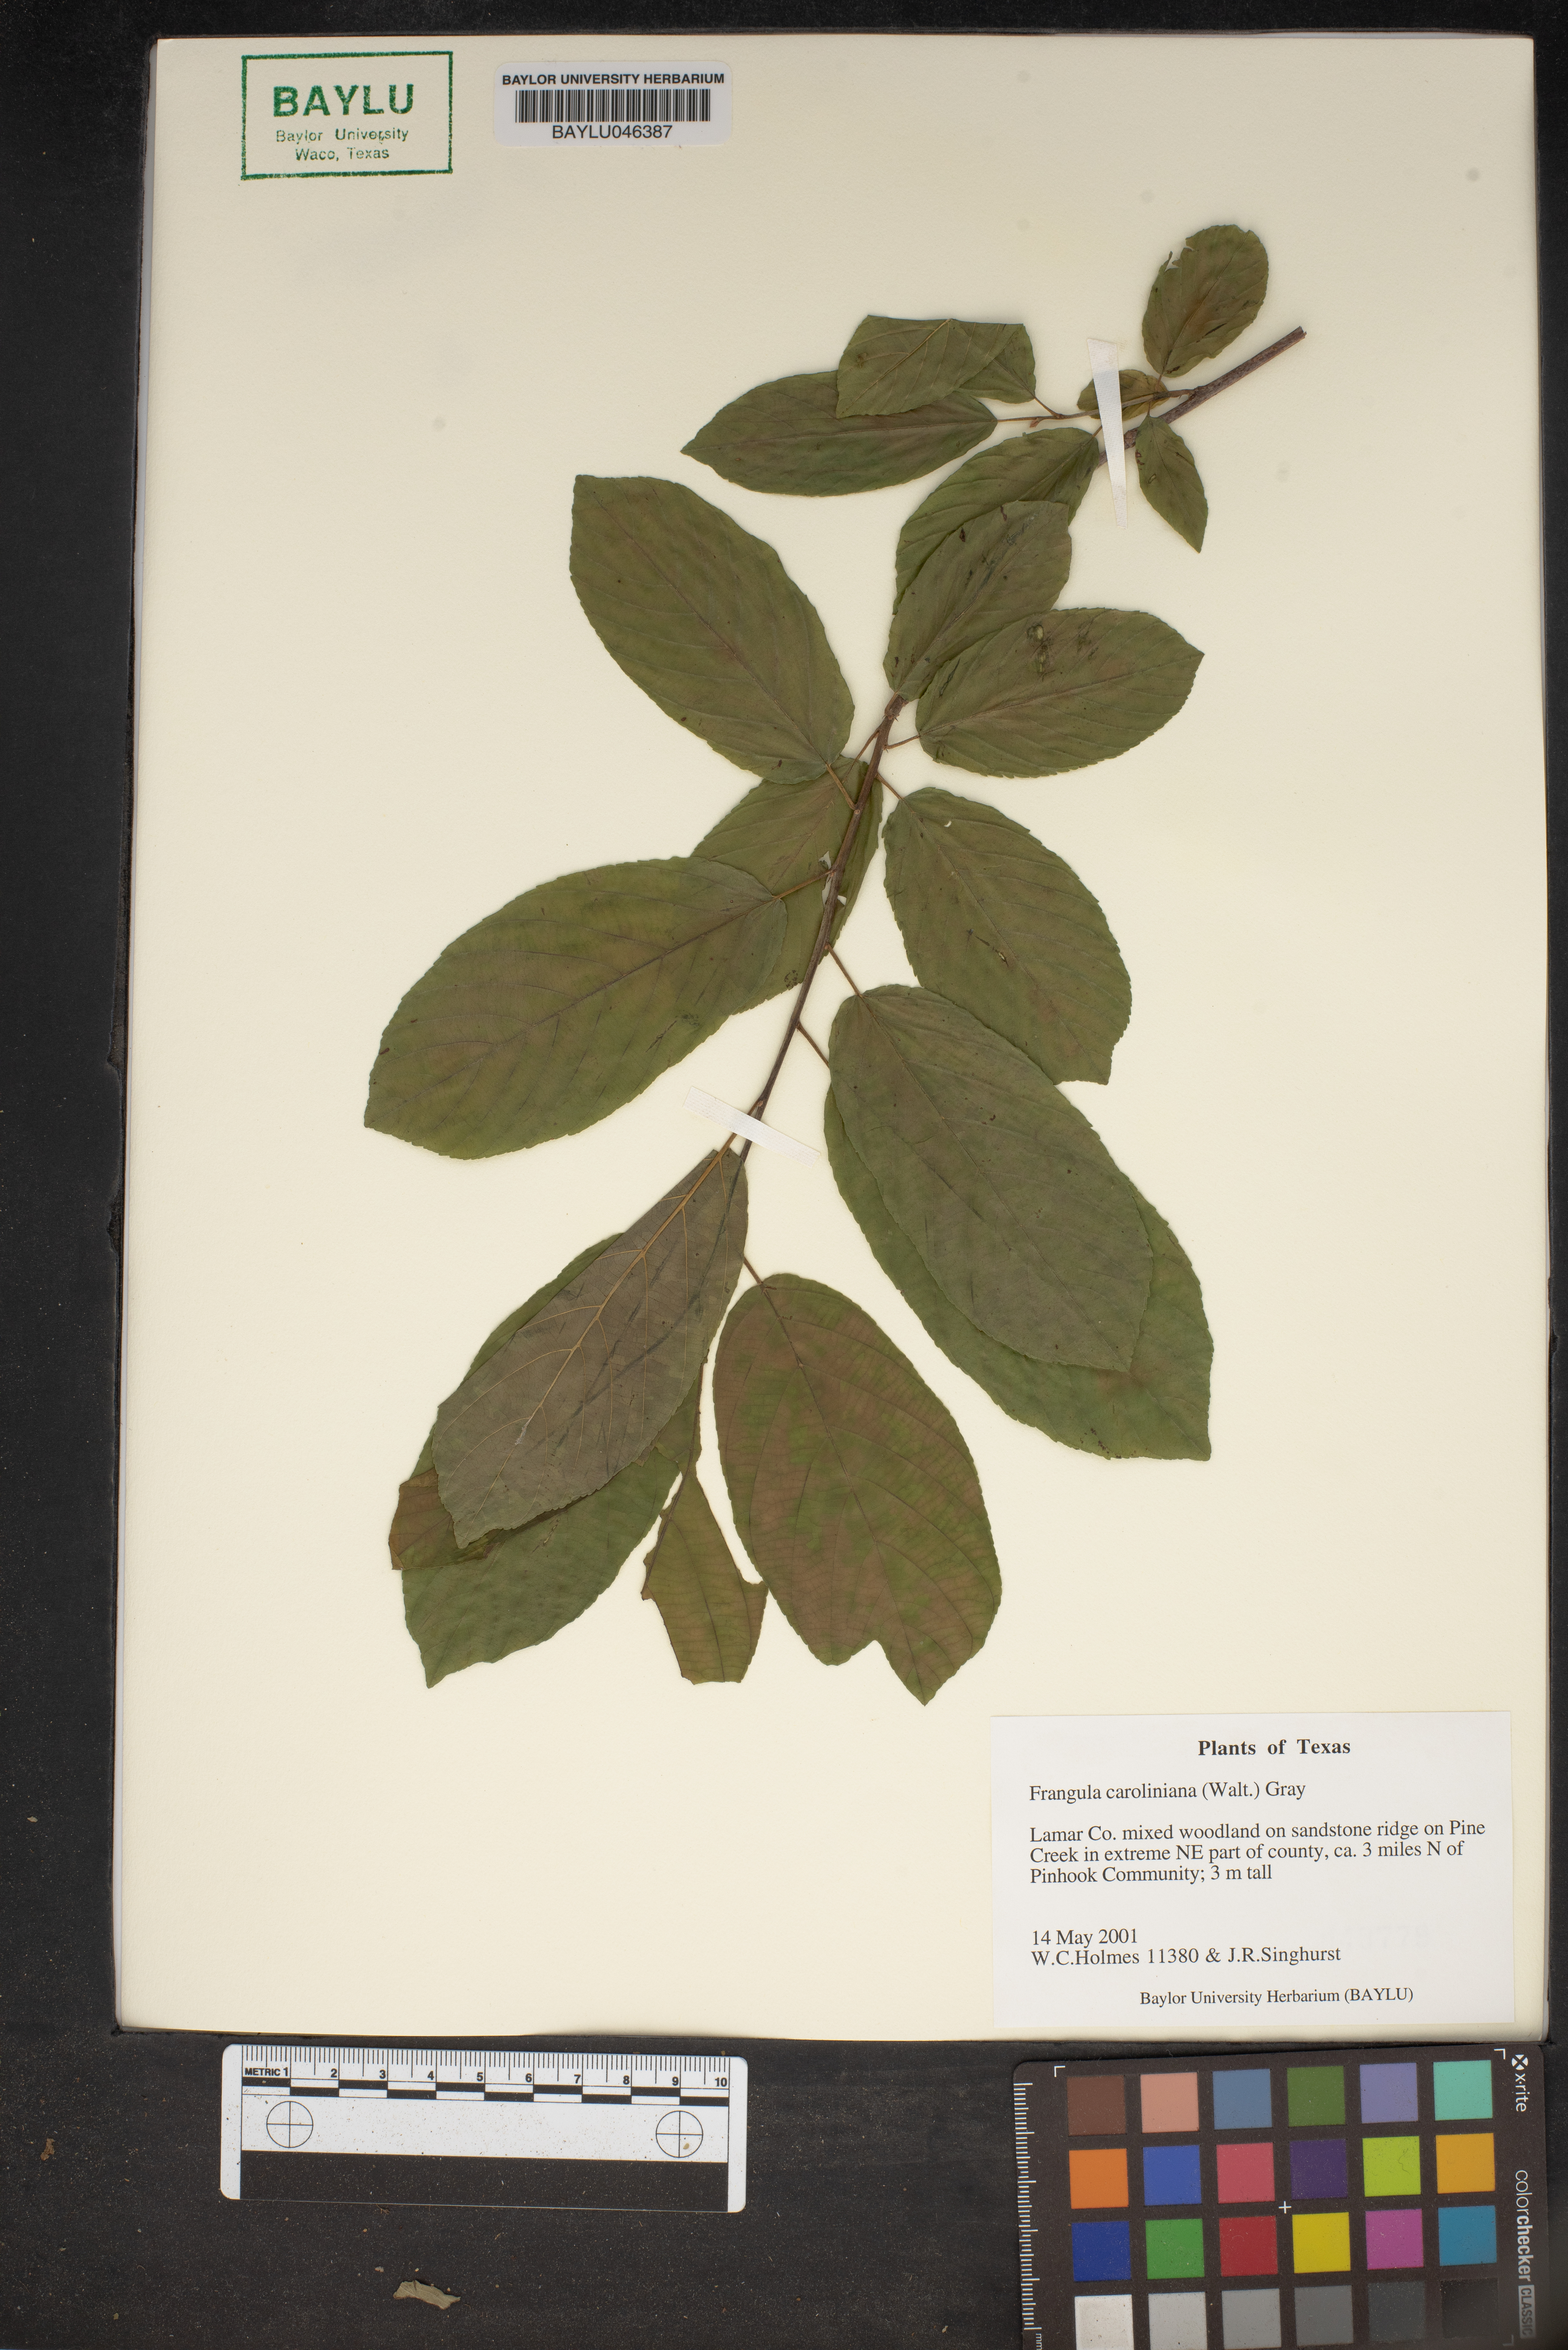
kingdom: Plantae
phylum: Tracheophyta
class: Magnoliopsida
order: Rosales
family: Rhamnaceae
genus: Frangula
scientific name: Frangula caroliniana
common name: Carolina buckthorn
